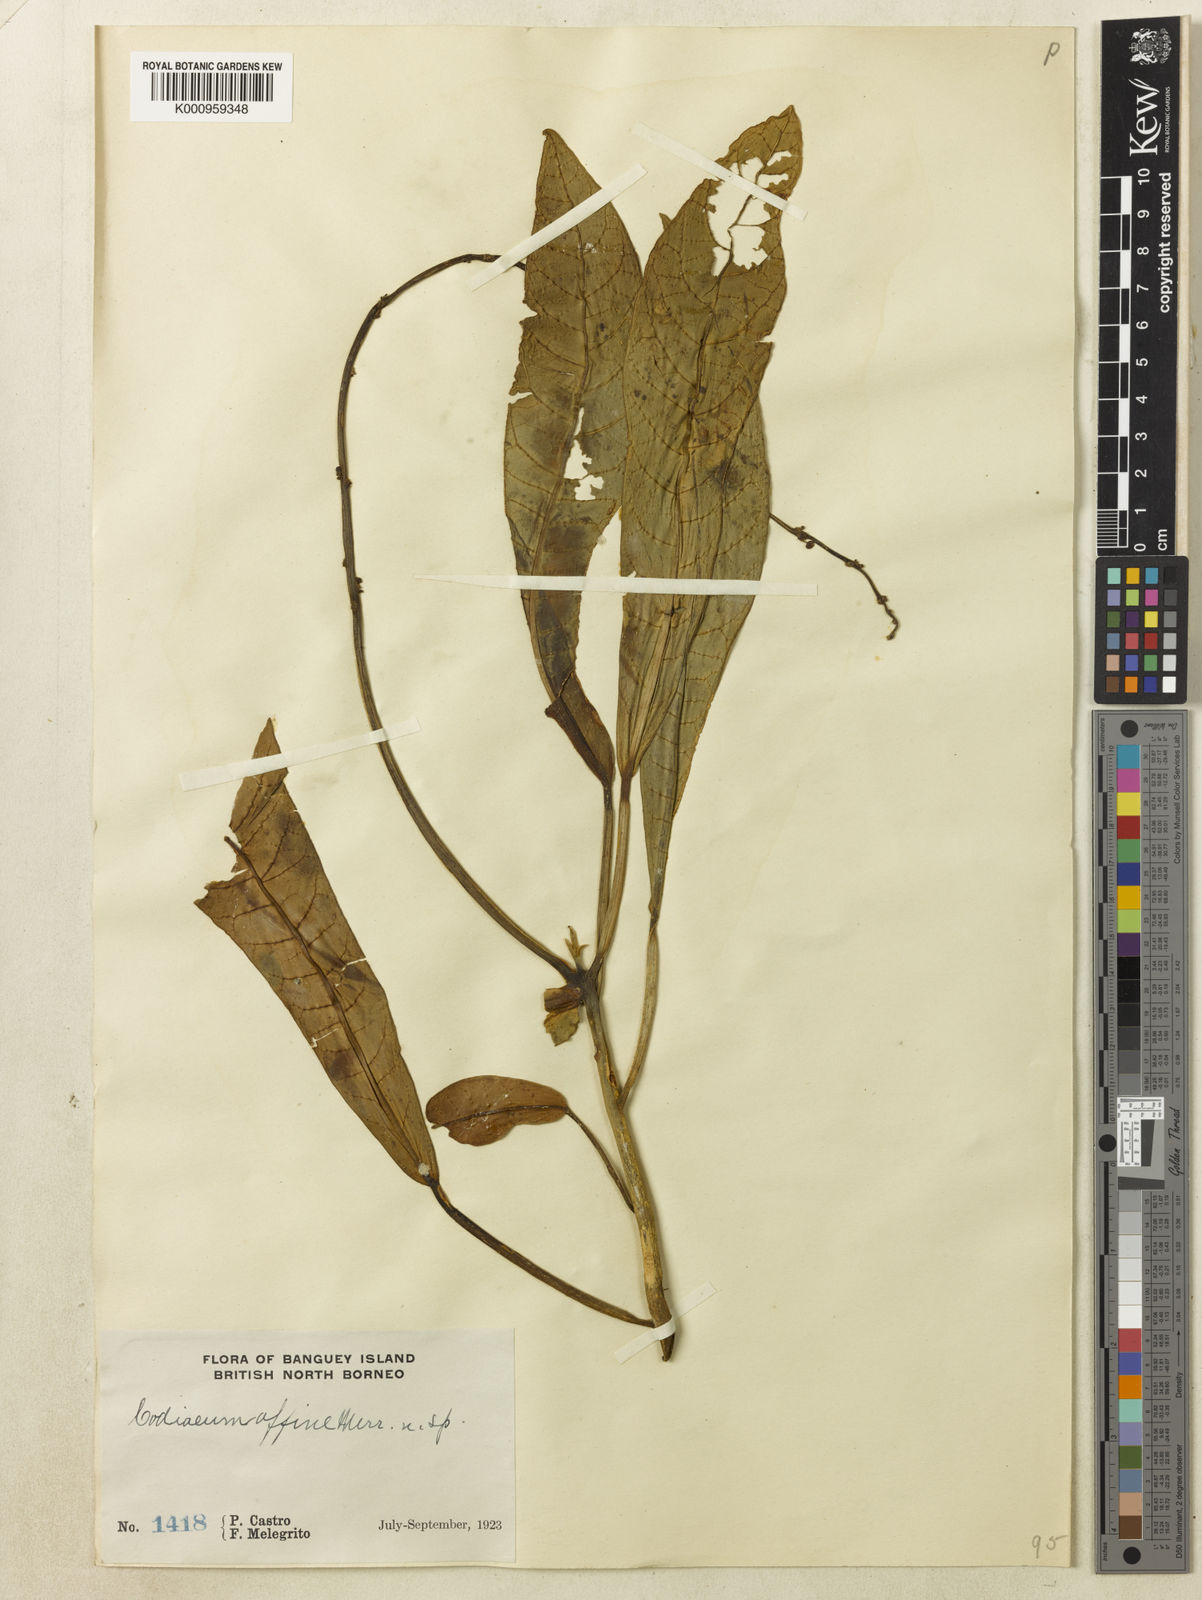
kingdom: Plantae
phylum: Tracheophyta
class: Magnoliopsida
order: Malpighiales
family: Euphorbiaceae
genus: Codiaeum
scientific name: Codiaeum affine
